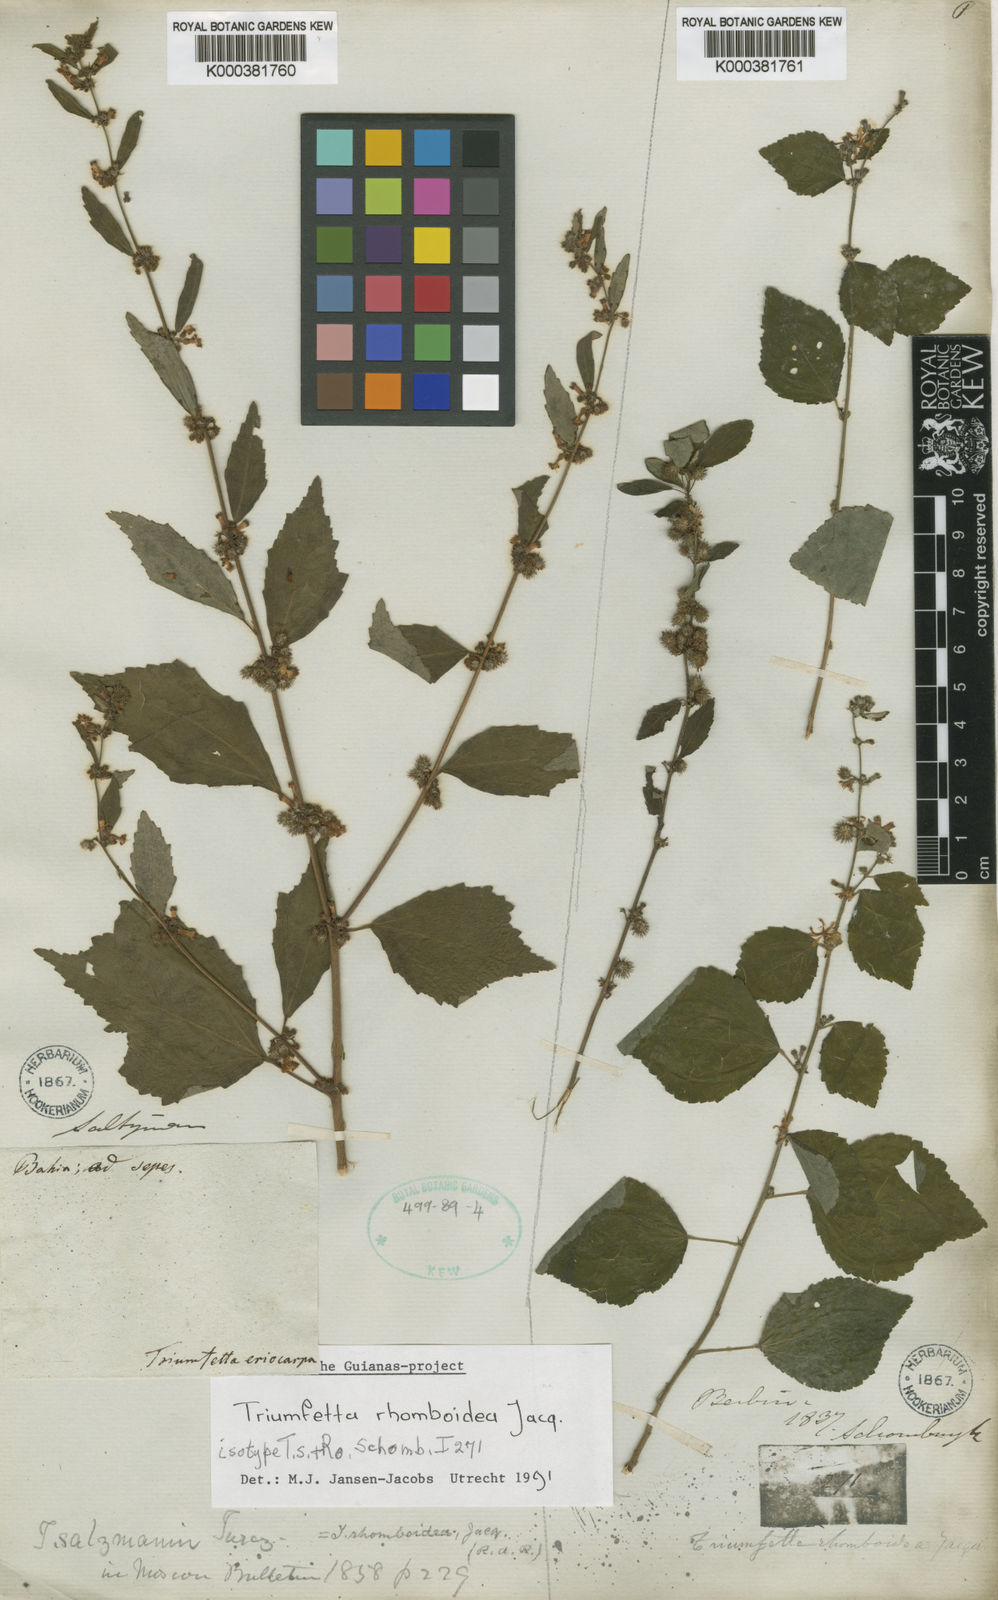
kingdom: Plantae
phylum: Tracheophyta
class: Magnoliopsida
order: Malvales
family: Malvaceae
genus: Triumfetta
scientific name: Triumfetta rhomboidea
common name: Diamond burbark
